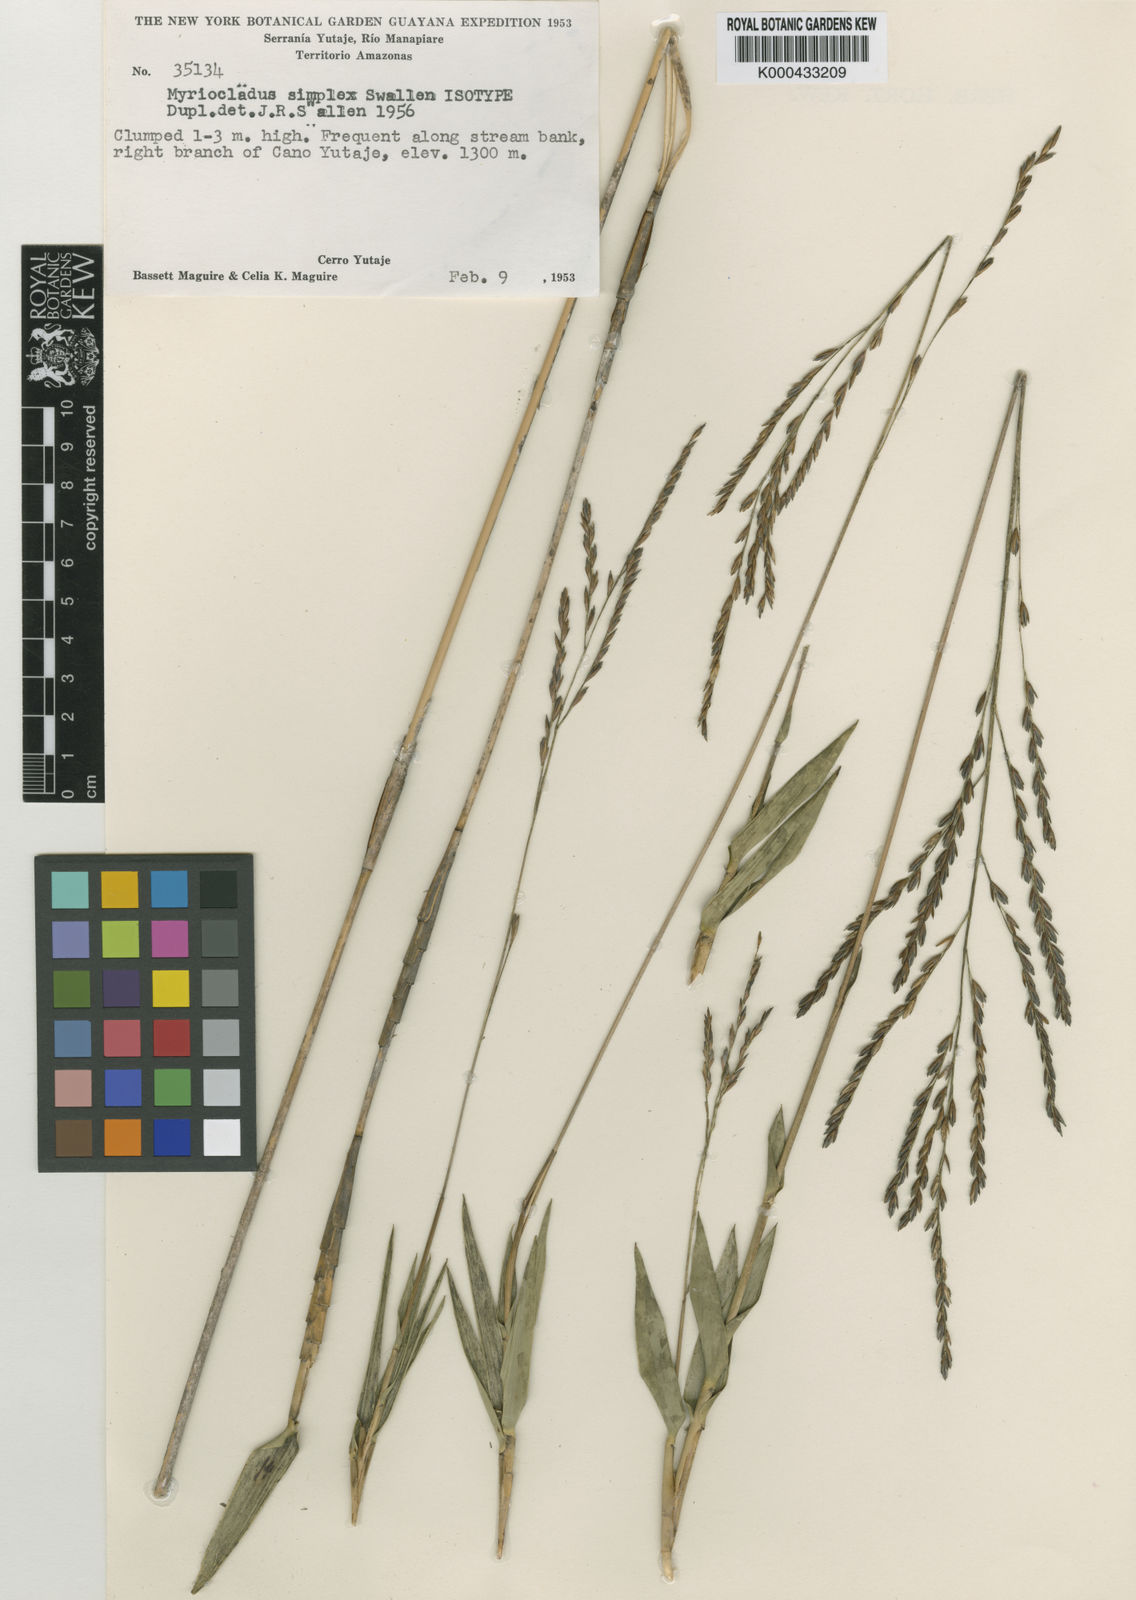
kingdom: Plantae
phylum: Tracheophyta
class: Liliopsida
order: Poales
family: Poaceae
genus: Myriocladus
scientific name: Myriocladus simplex
